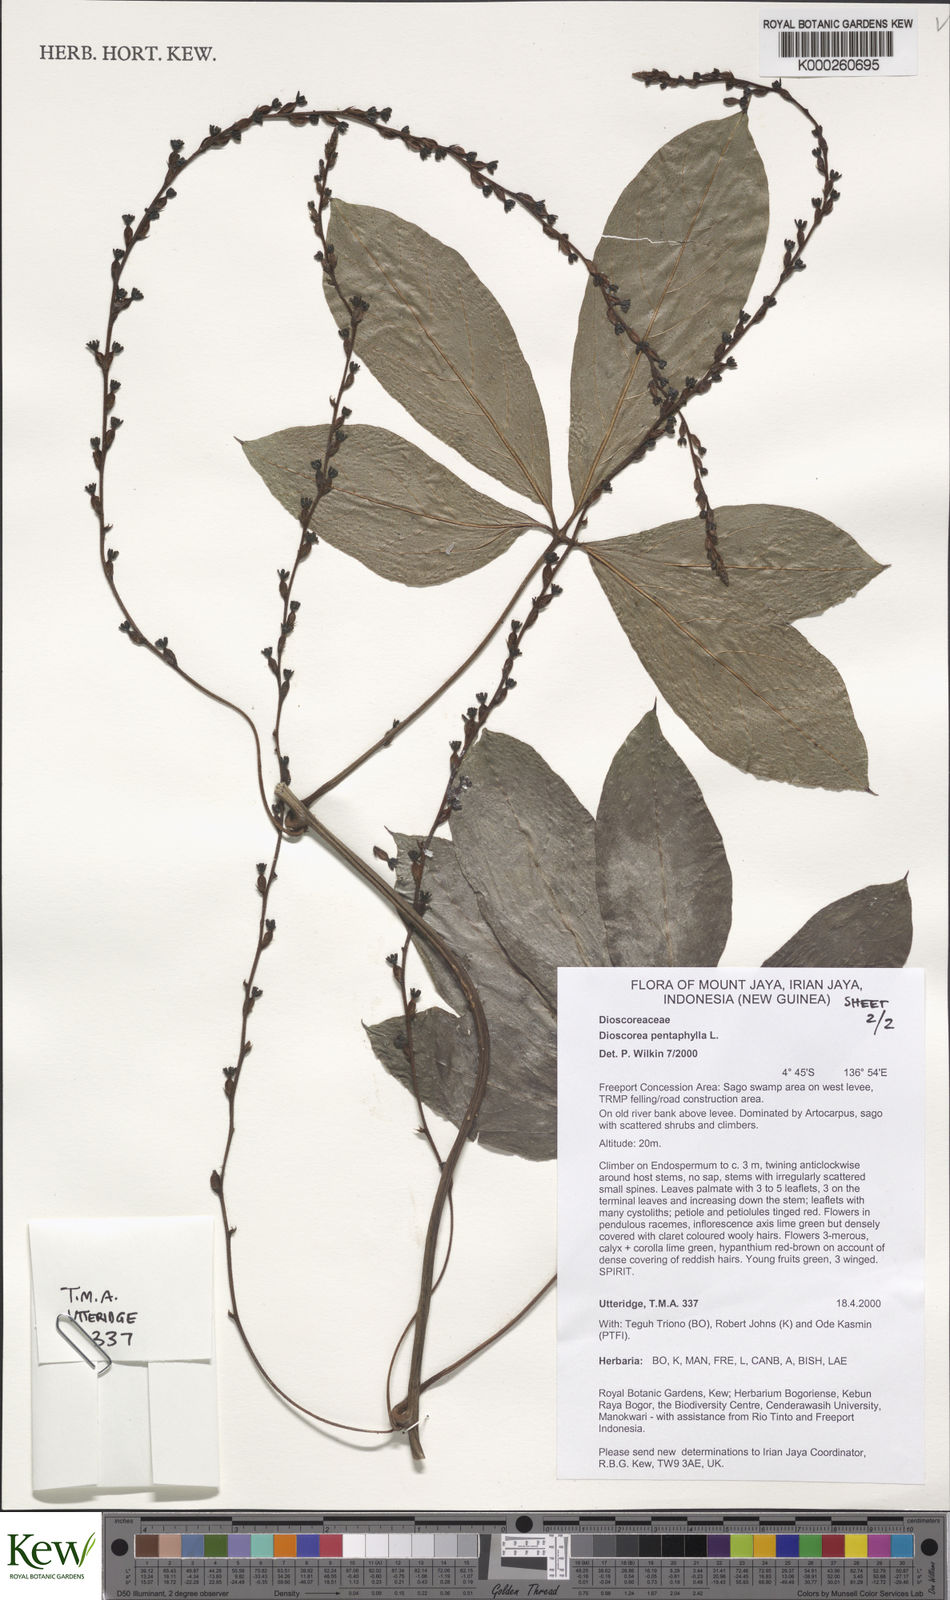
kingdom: Plantae
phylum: Tracheophyta
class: Liliopsida
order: Dioscoreales
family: Dioscoreaceae
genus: Dioscorea
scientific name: Dioscorea pentaphylla
